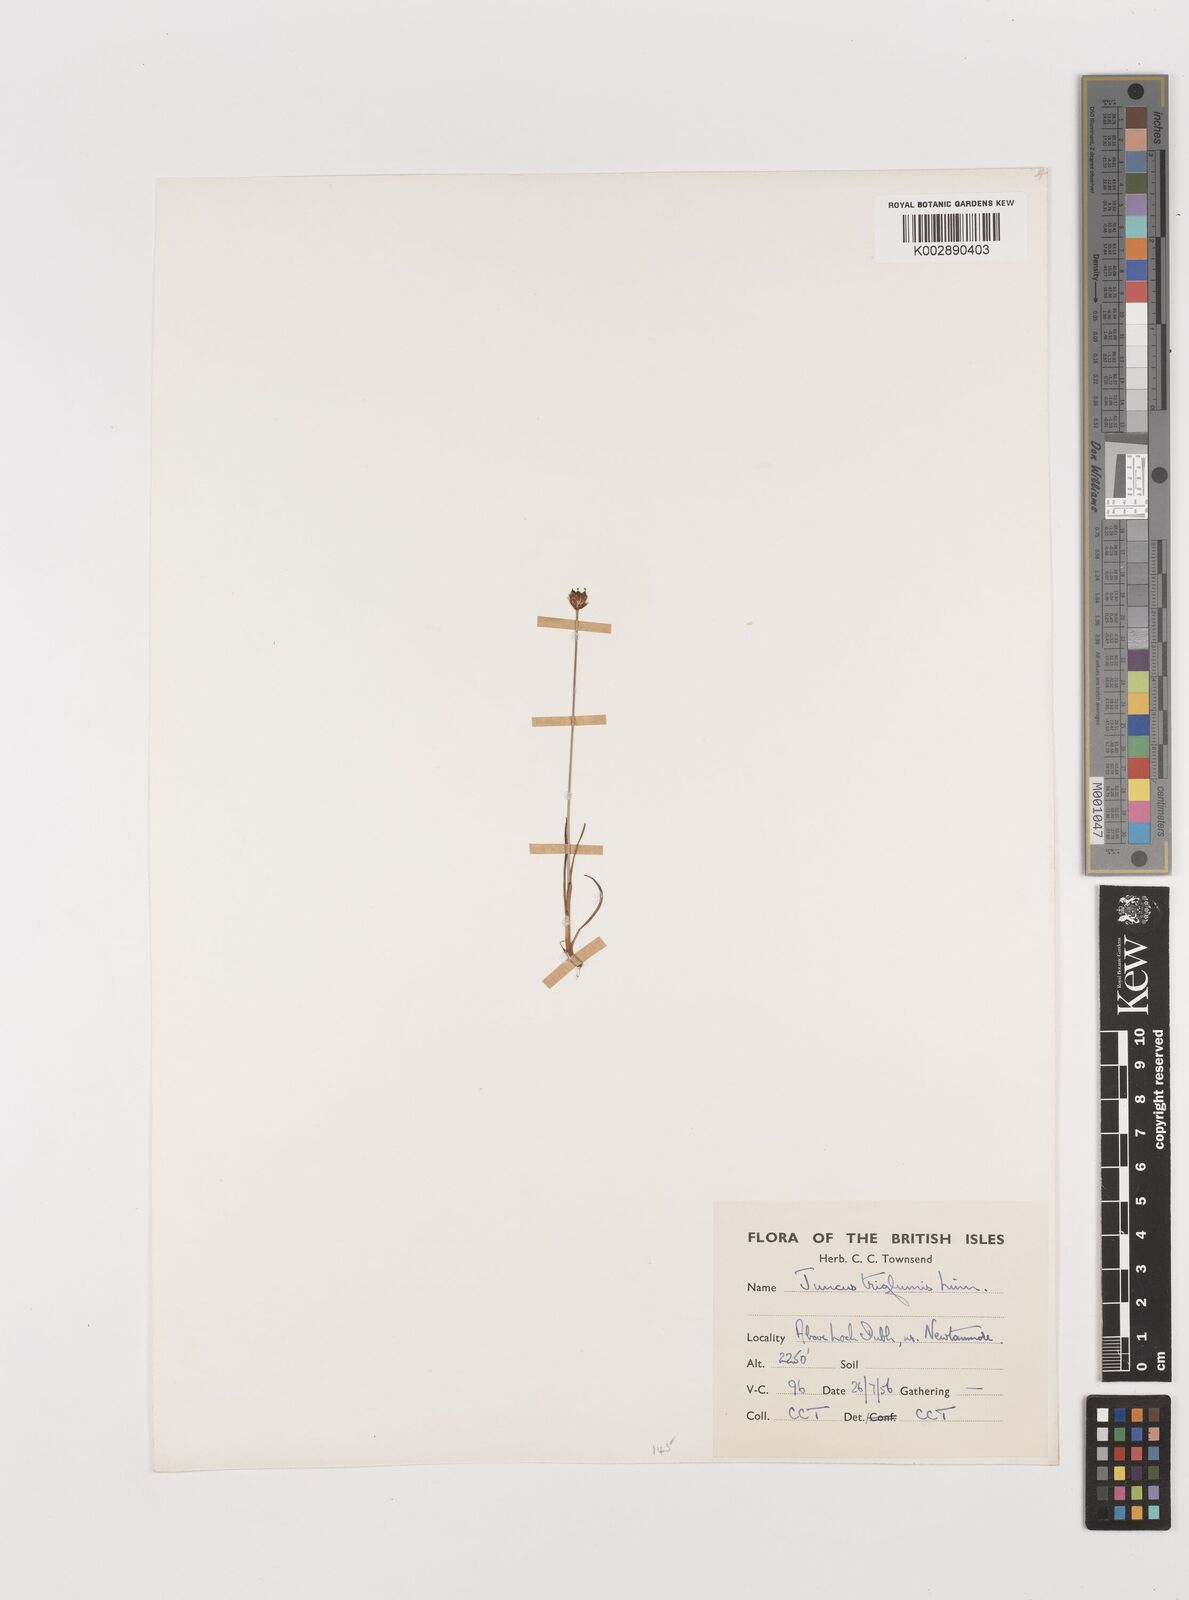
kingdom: Plantae
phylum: Tracheophyta
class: Liliopsida
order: Poales
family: Juncaceae
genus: Juncus
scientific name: Juncus triglumis
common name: Three-flowered rush
